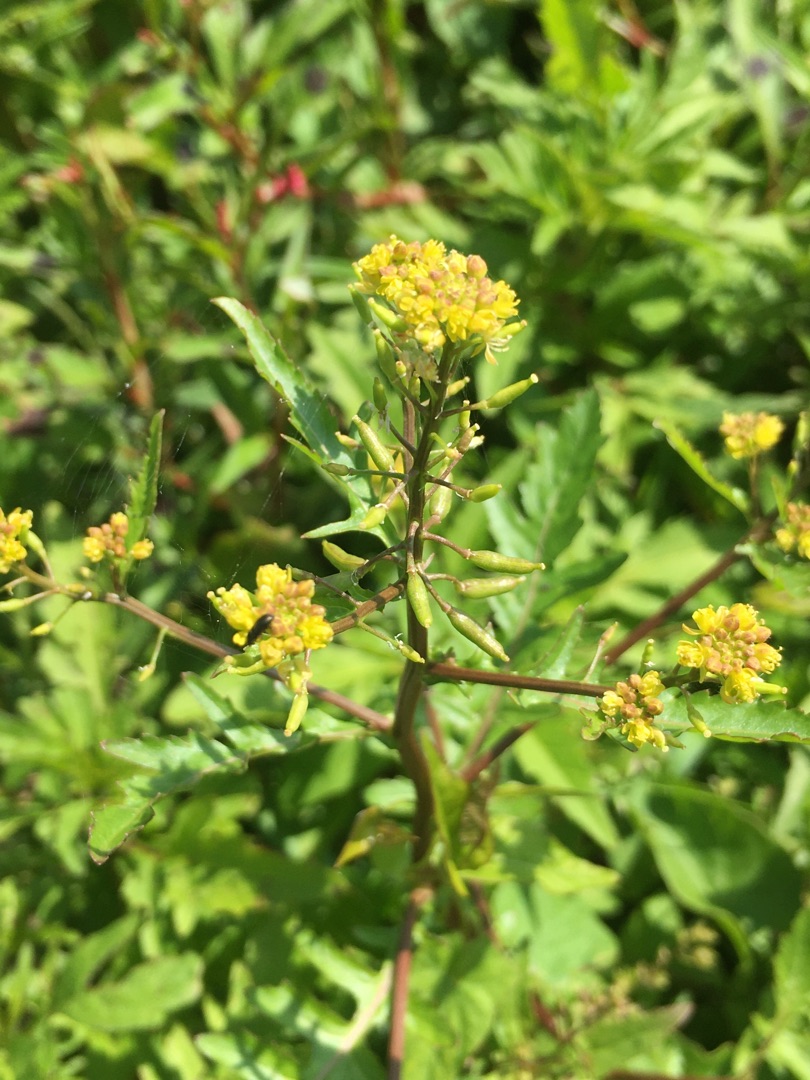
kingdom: Plantae
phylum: Tracheophyta
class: Magnoliopsida
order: Brassicales
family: Brassicaceae
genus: Rorippa
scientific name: Rorippa palustris
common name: Kær-guldkarse
